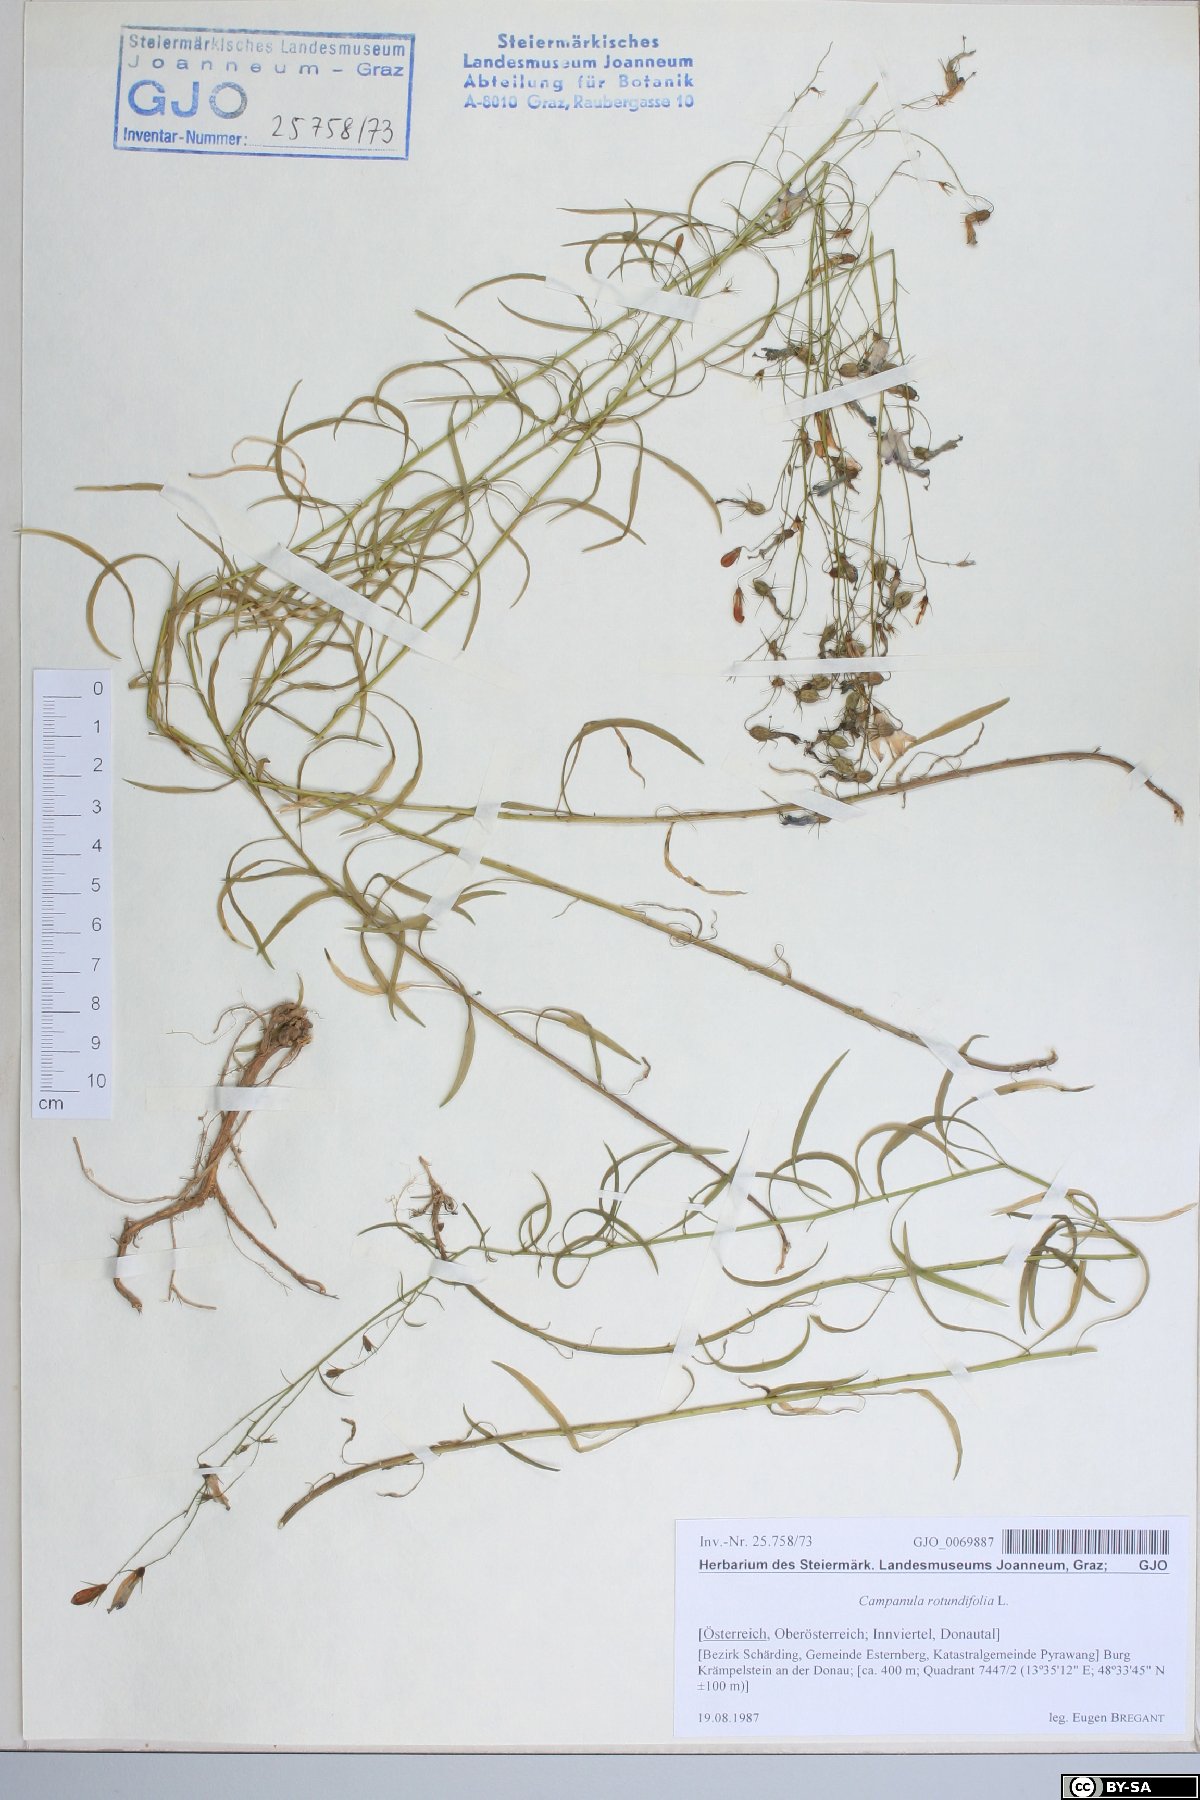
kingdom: Plantae
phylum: Tracheophyta
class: Magnoliopsida
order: Asterales
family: Campanulaceae
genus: Campanula
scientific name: Campanula rotundifolia
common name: Harebell
